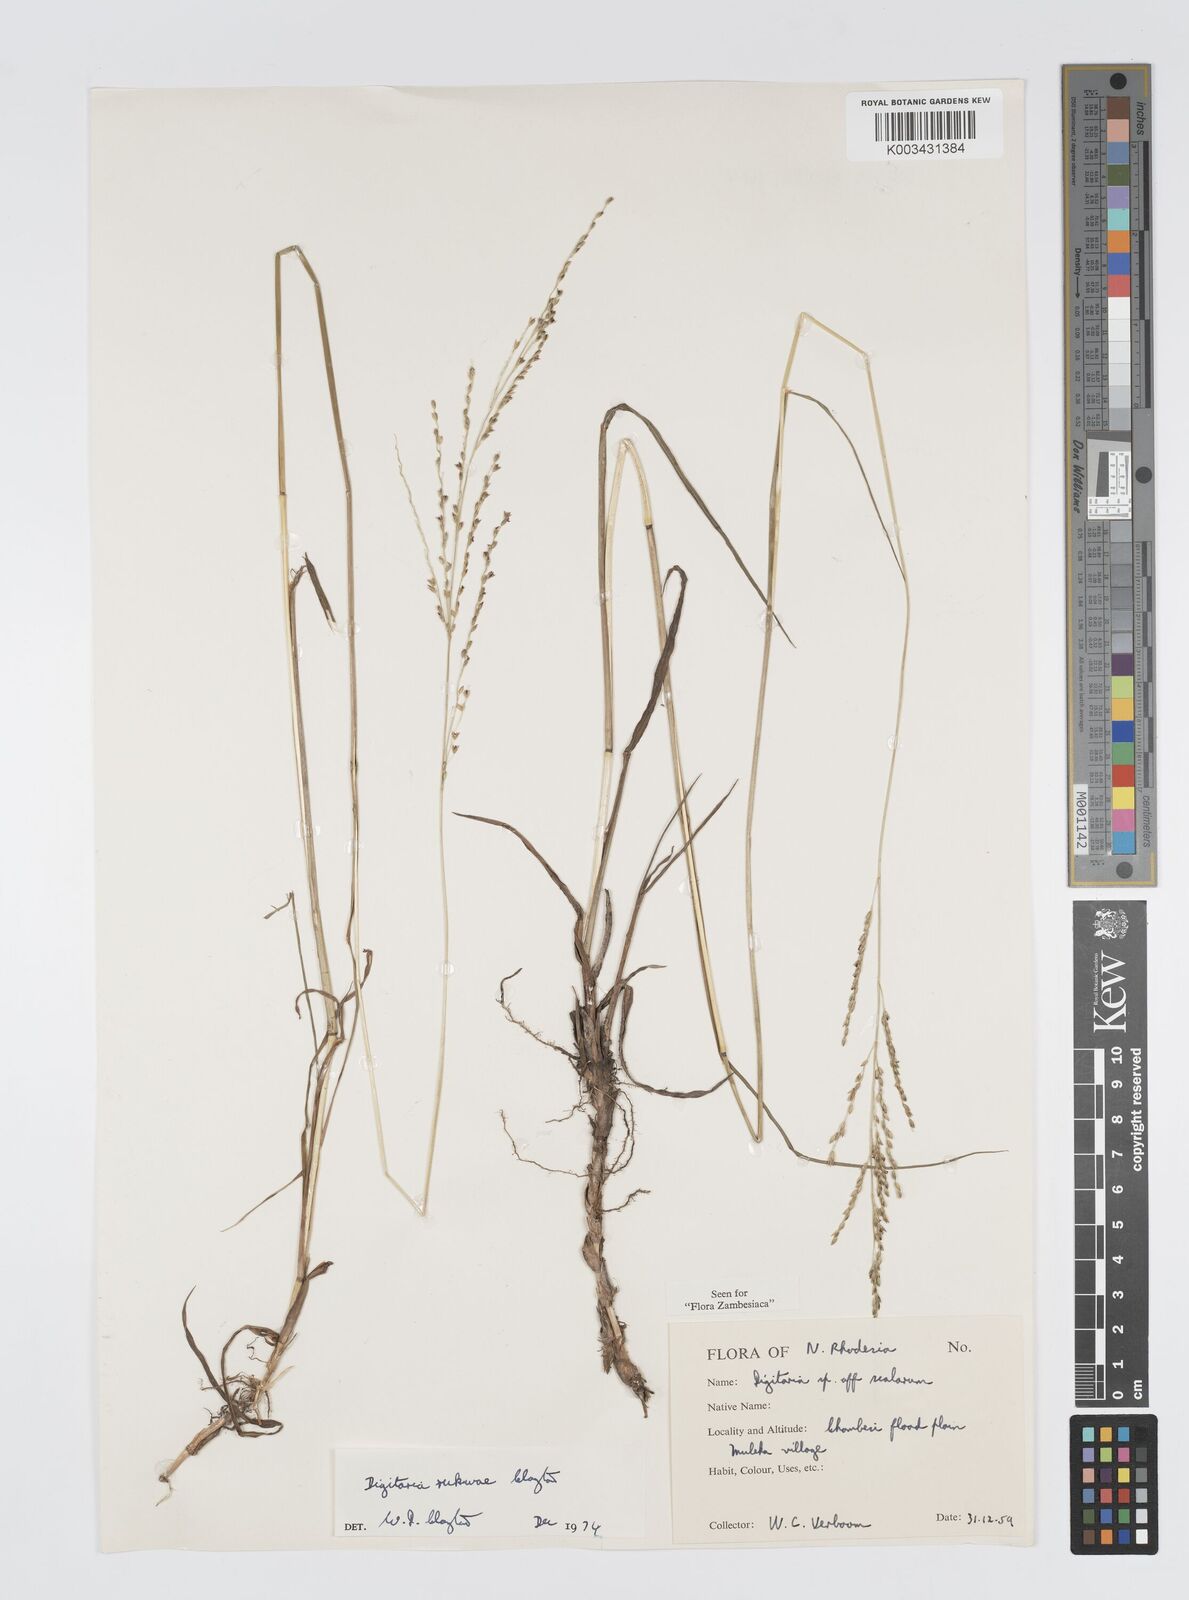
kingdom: Plantae
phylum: Tracheophyta
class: Liliopsida
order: Poales
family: Poaceae
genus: Digitaria
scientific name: Digitaria rukwae
